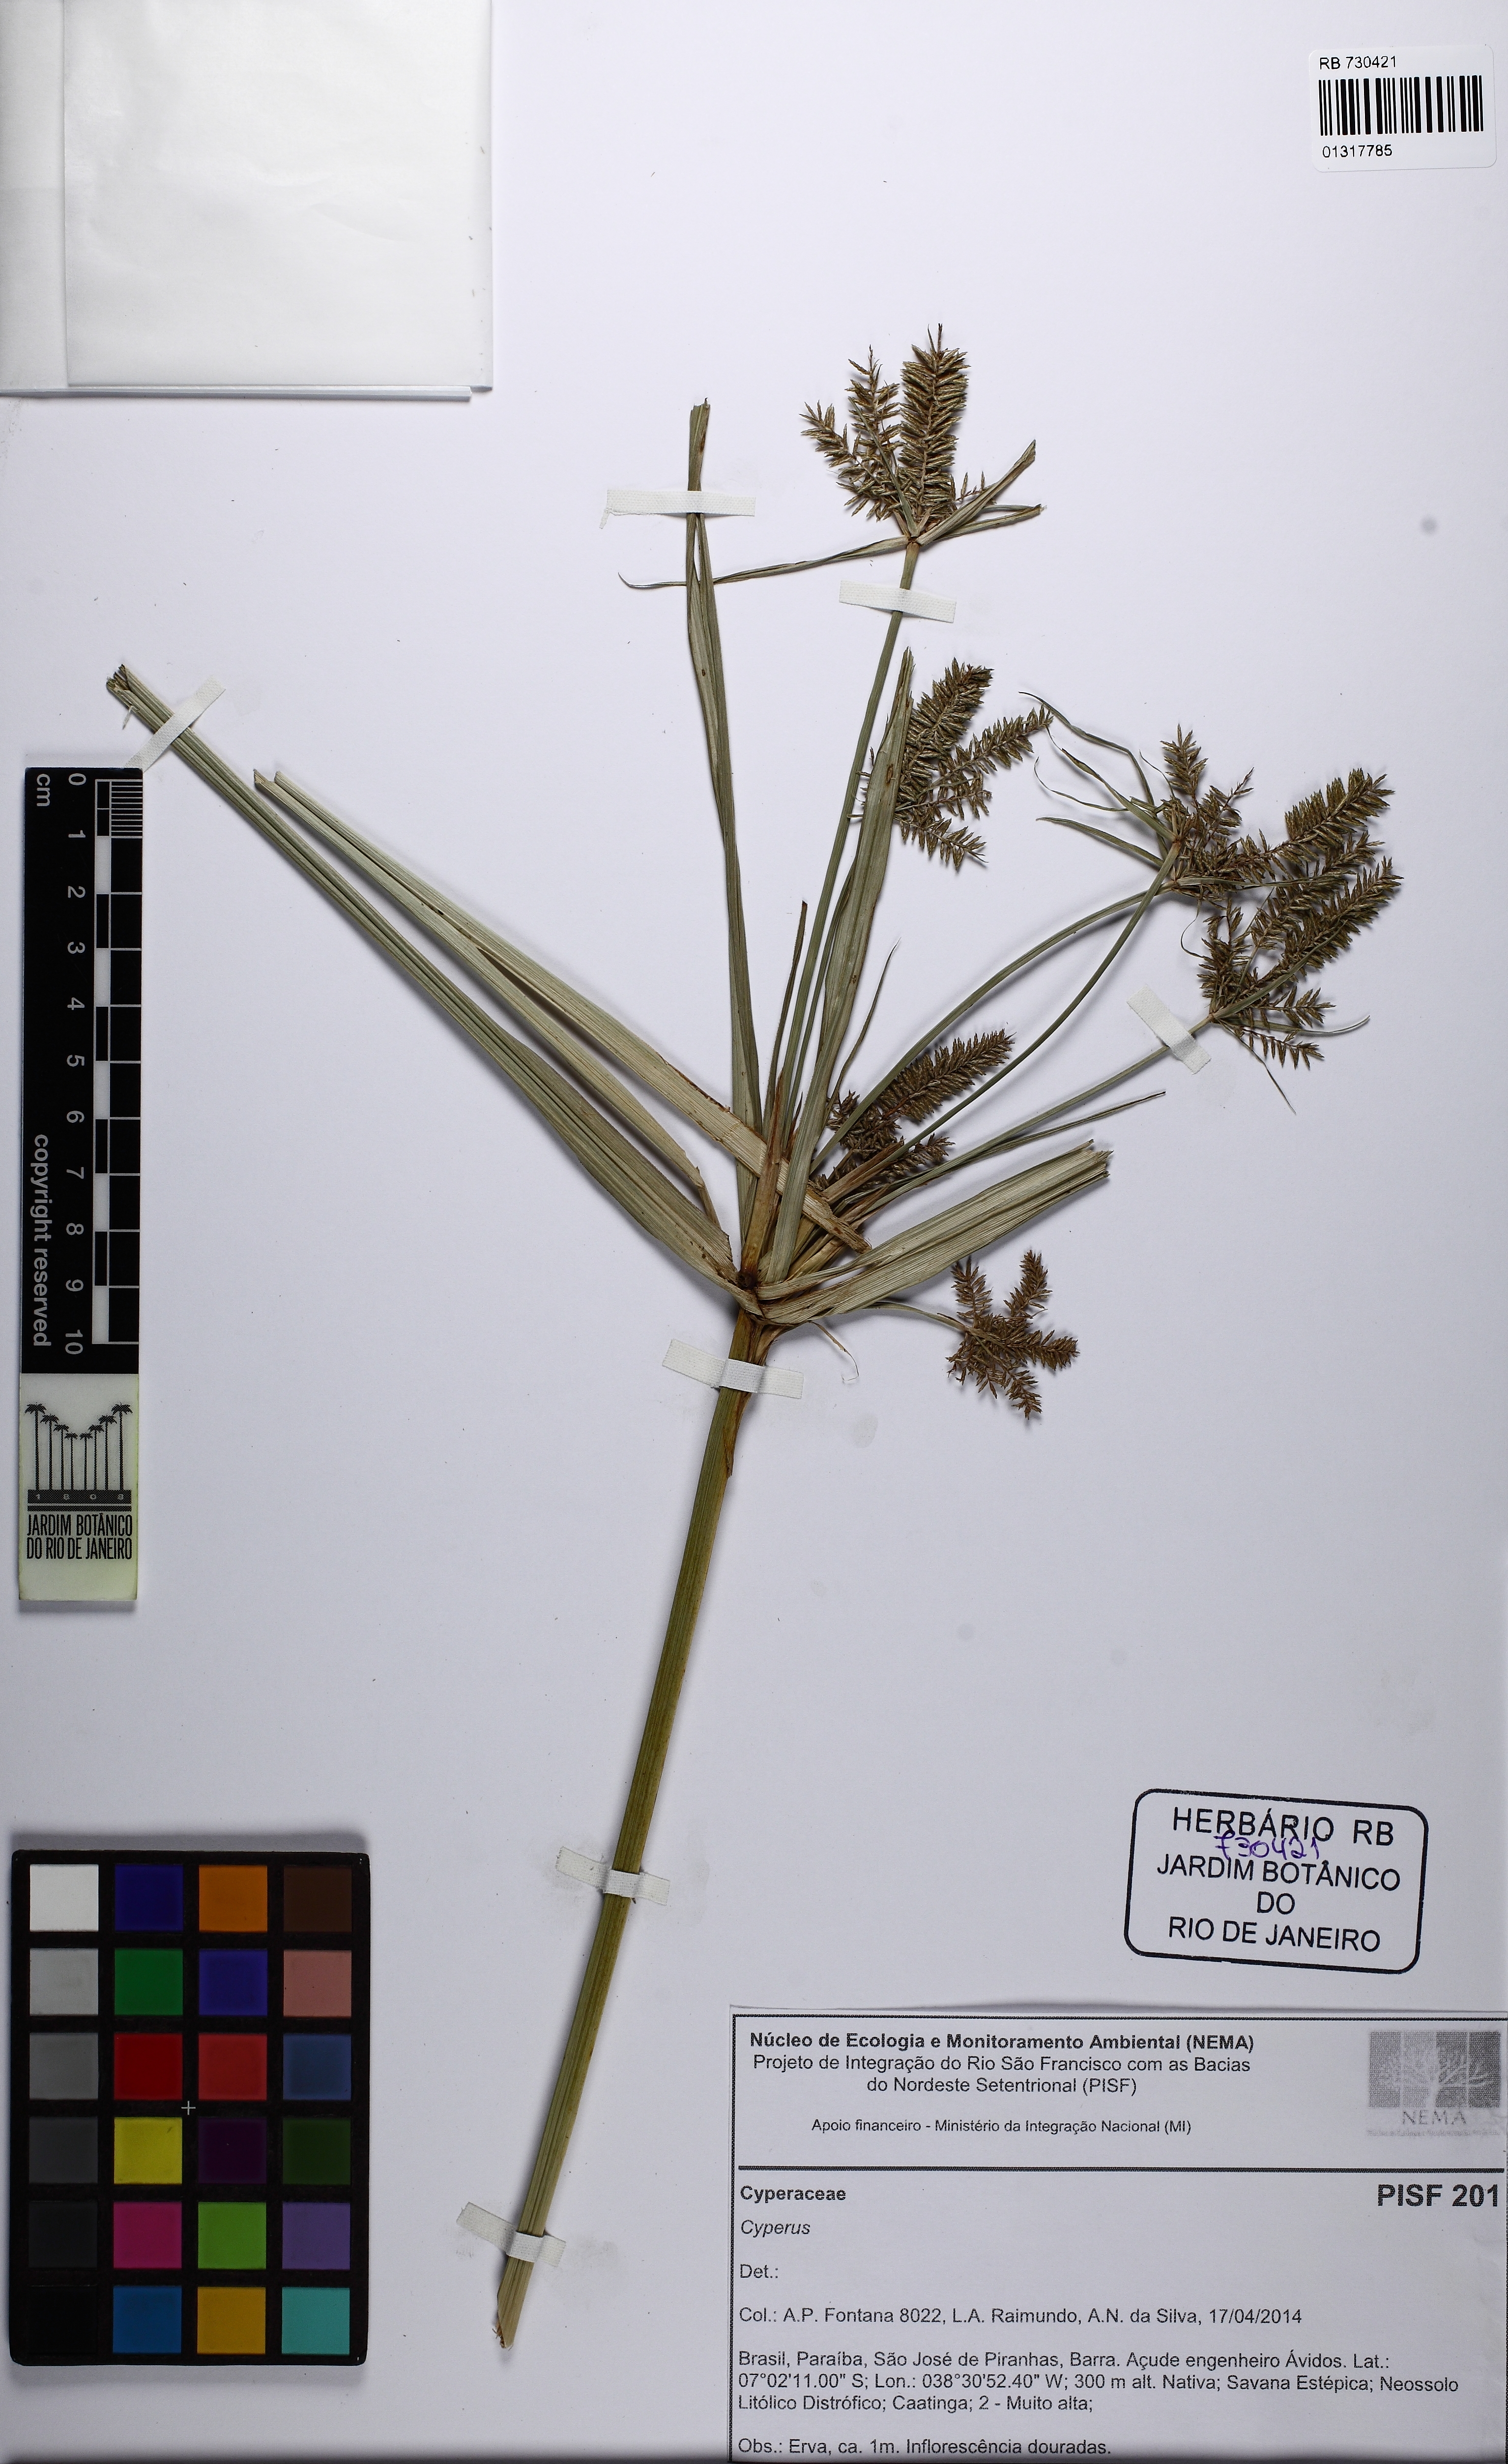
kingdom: Plantae
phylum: Tracheophyta
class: Liliopsida
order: Poales
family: Cyperaceae
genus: Cyperus
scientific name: Cyperus digitatus
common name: Finger flatsedge
